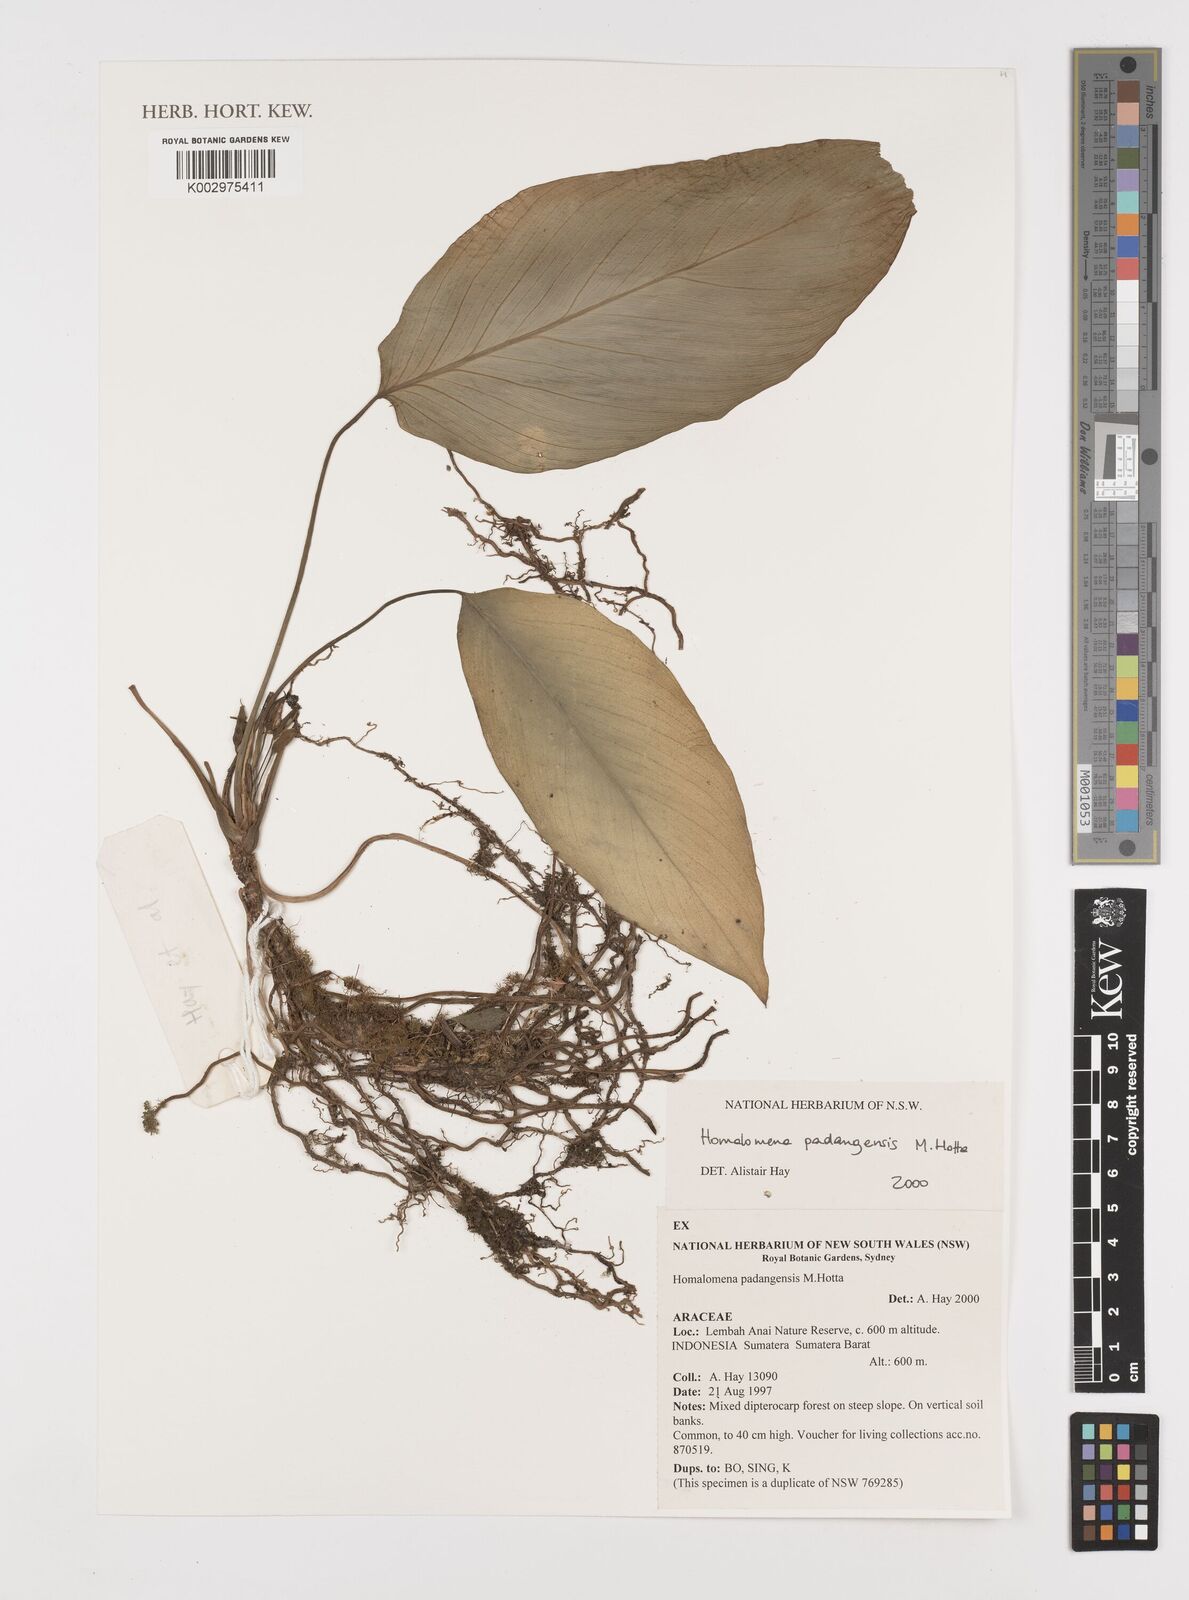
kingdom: Plantae
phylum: Tracheophyta
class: Liliopsida
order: Alismatales
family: Araceae
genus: Homalomena
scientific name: Homalomena padangensis
